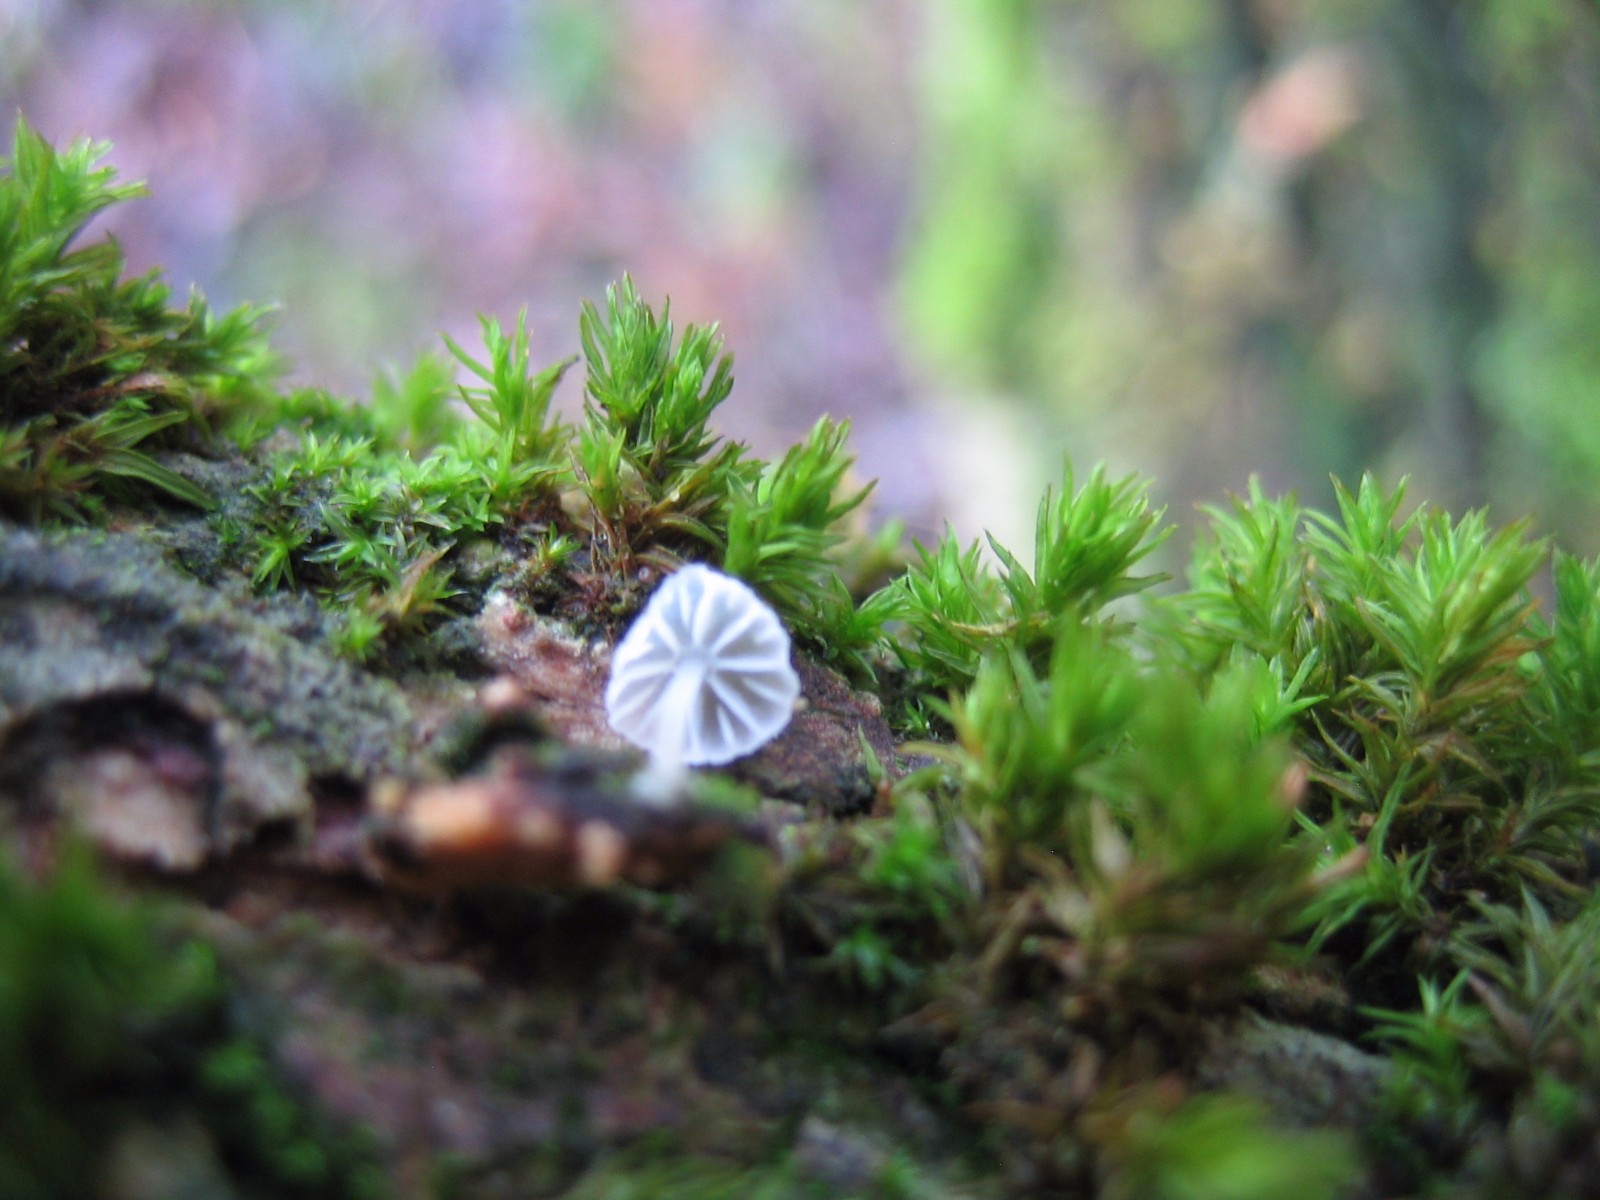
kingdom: Fungi
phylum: Basidiomycota
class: Agaricomycetes
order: Agaricales
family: Mycenaceae
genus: Mycena
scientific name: Mycena
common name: huesvamp
